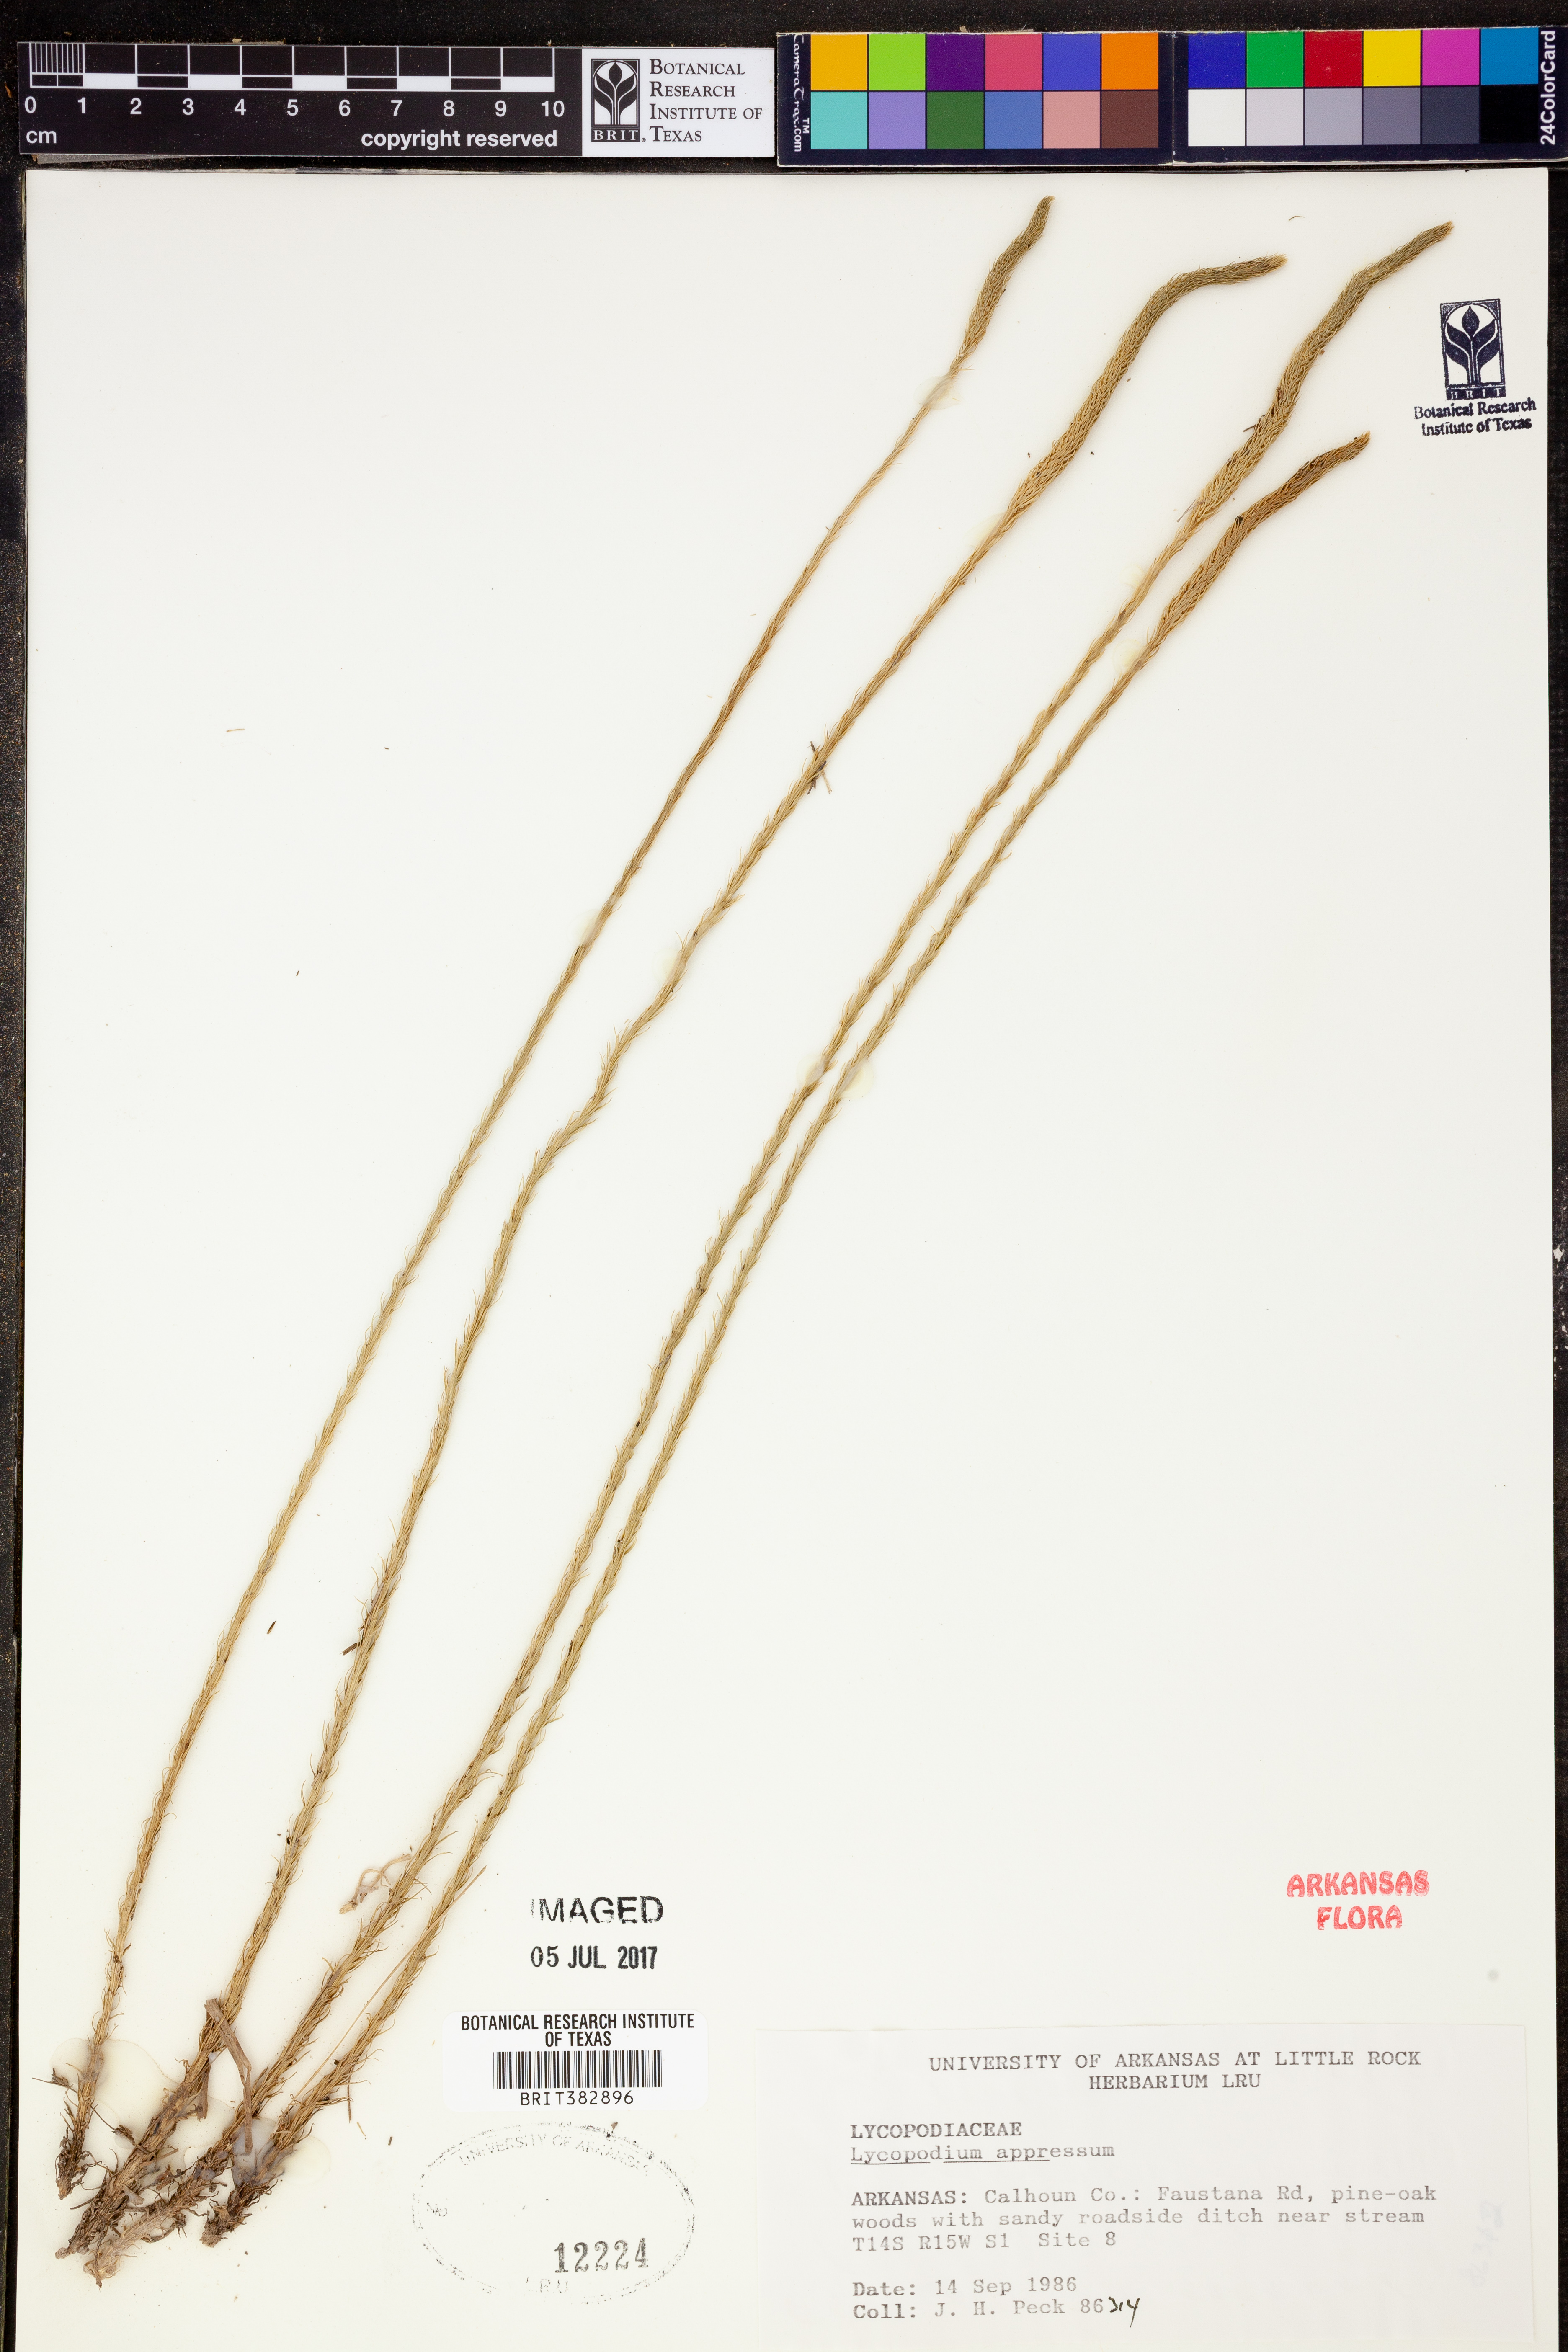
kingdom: Plantae
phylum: Tracheophyta
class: Lycopodiopsida
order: Lycopodiales
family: Lycopodiaceae
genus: Lycopodiella
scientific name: Lycopodiella appressa
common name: Appressed bog clubmoss
